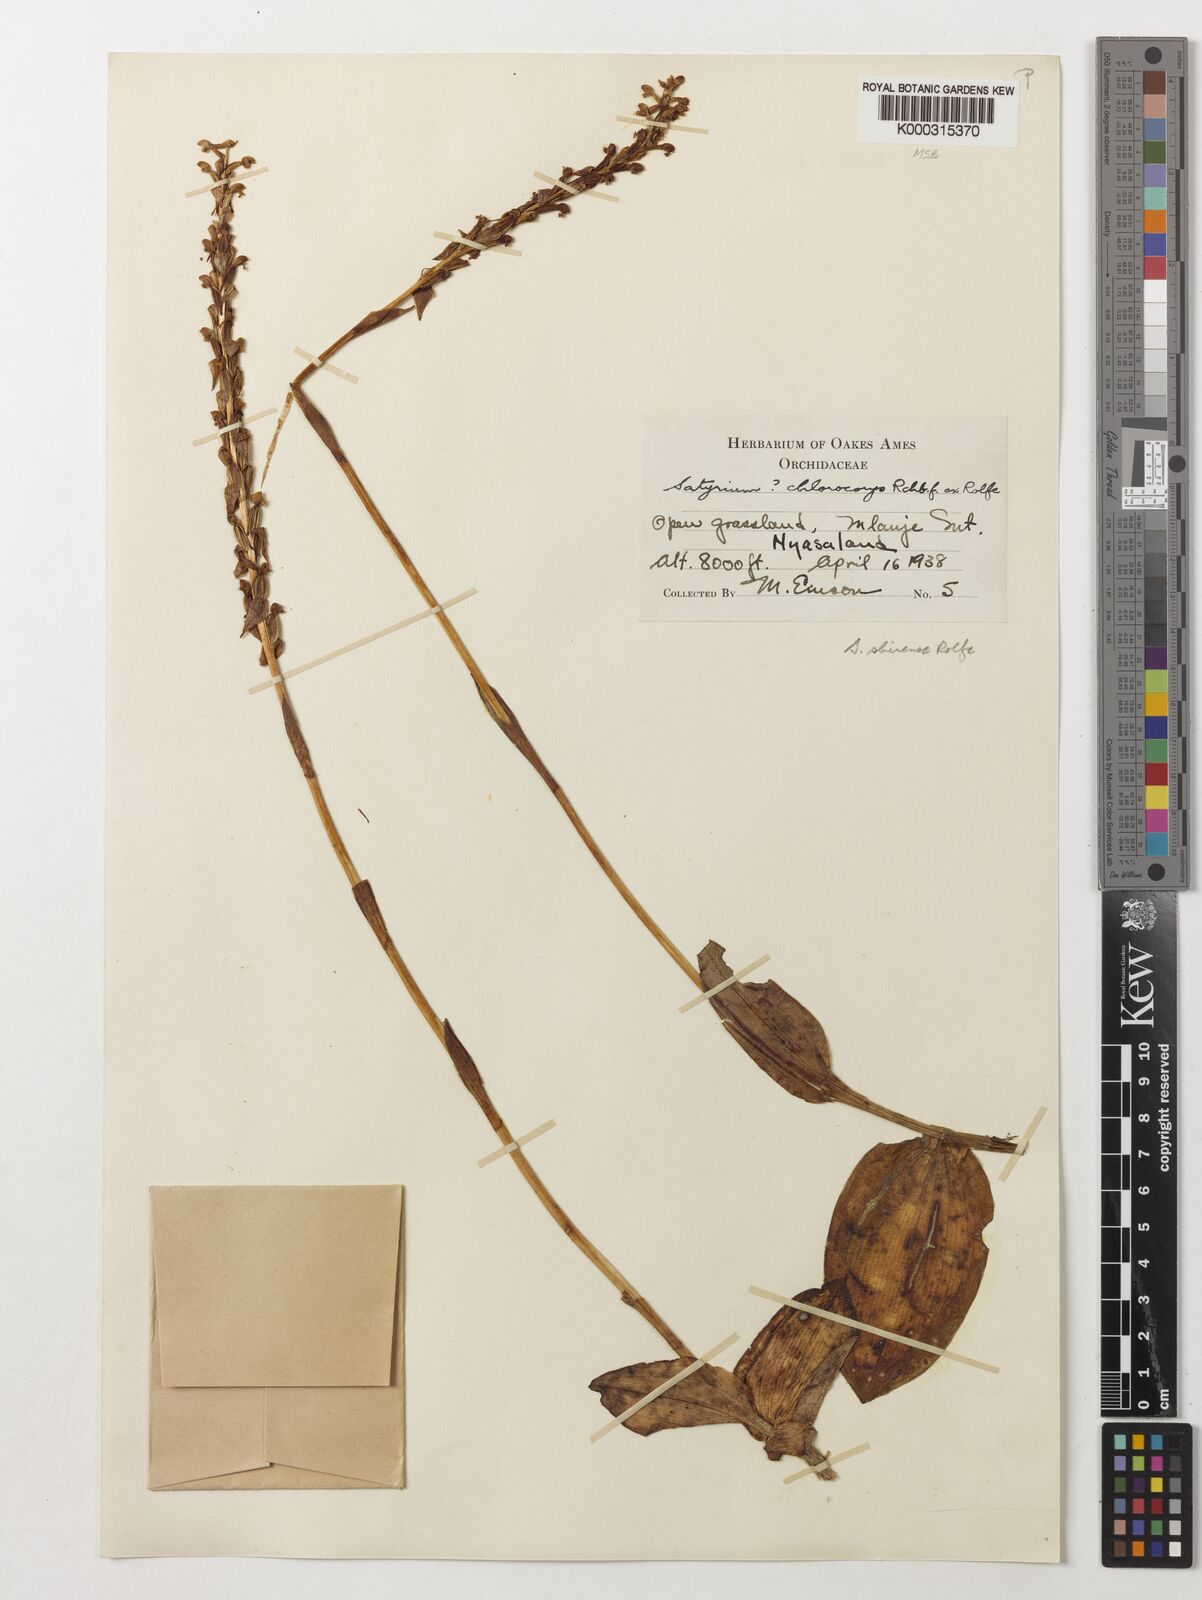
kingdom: Plantae
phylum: Tracheophyta
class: Liliopsida
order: Asparagales
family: Orchidaceae
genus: Satyrium
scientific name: Satyrium shirense
